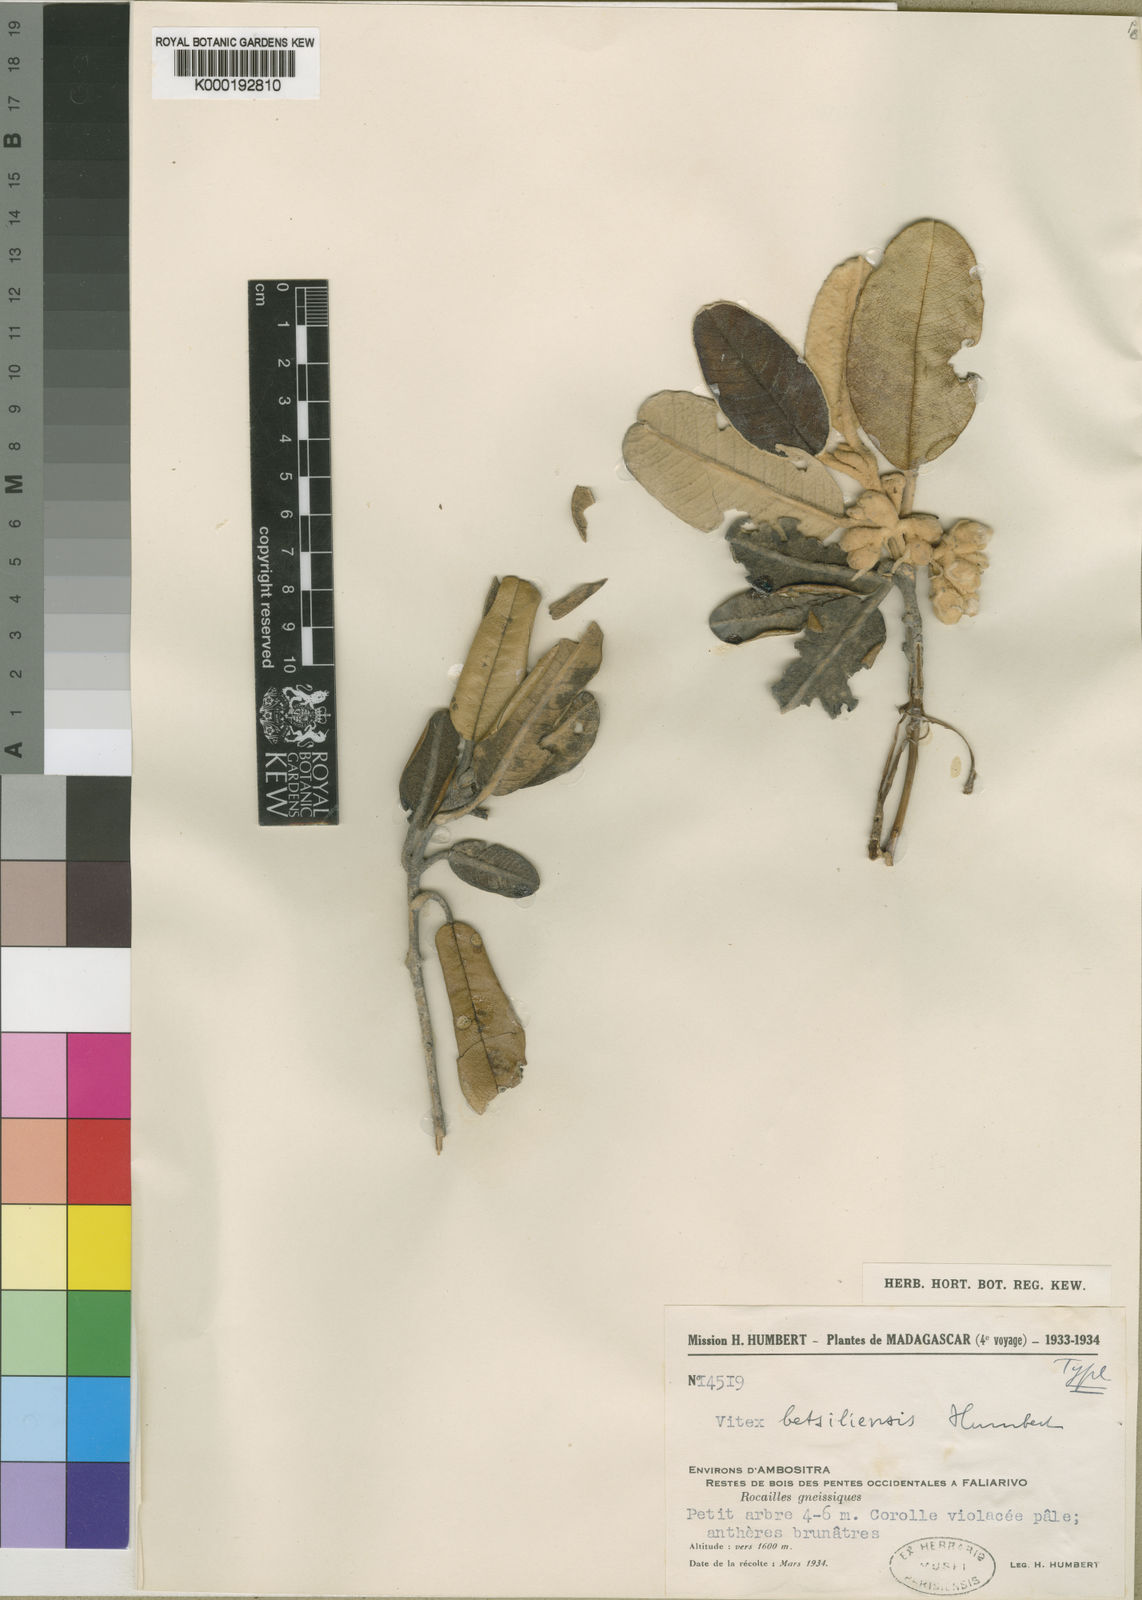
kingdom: Plantae
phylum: Tracheophyta
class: Magnoliopsida
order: Lamiales
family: Lamiaceae
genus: Vitex
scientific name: Vitex betsiliensis
